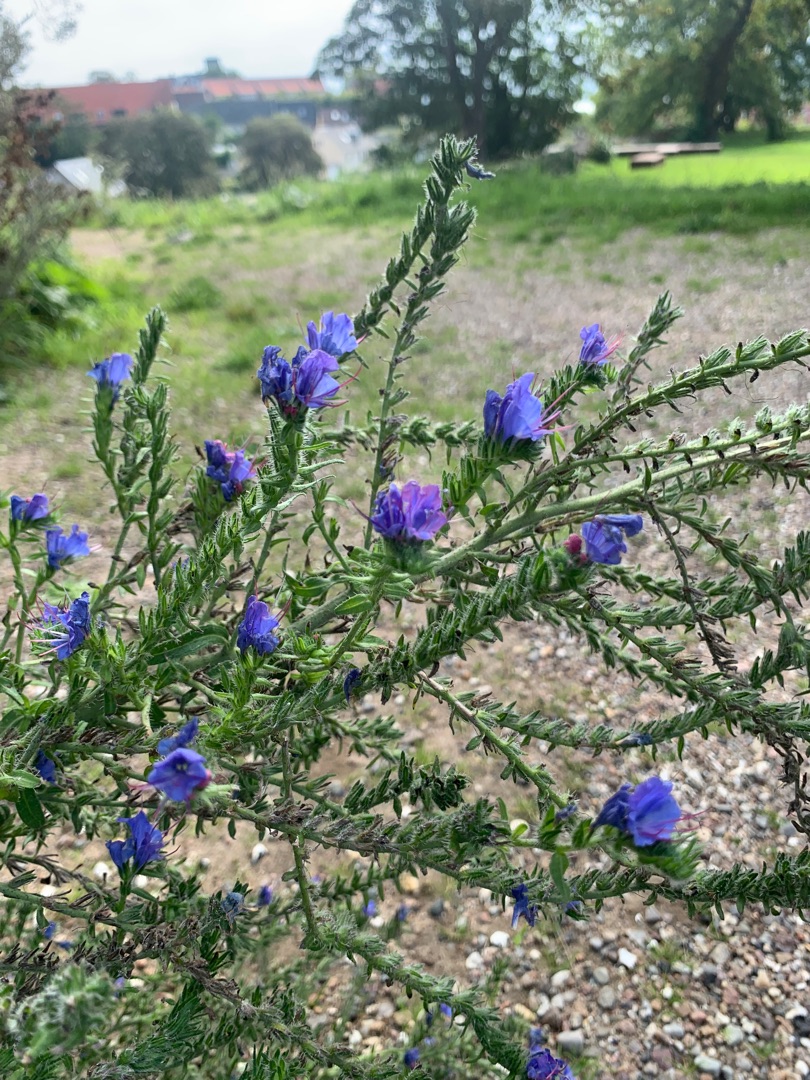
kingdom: Plantae
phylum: Tracheophyta
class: Magnoliopsida
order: Boraginales
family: Boraginaceae
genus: Echium
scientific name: Echium vulgare
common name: Slangehoved
